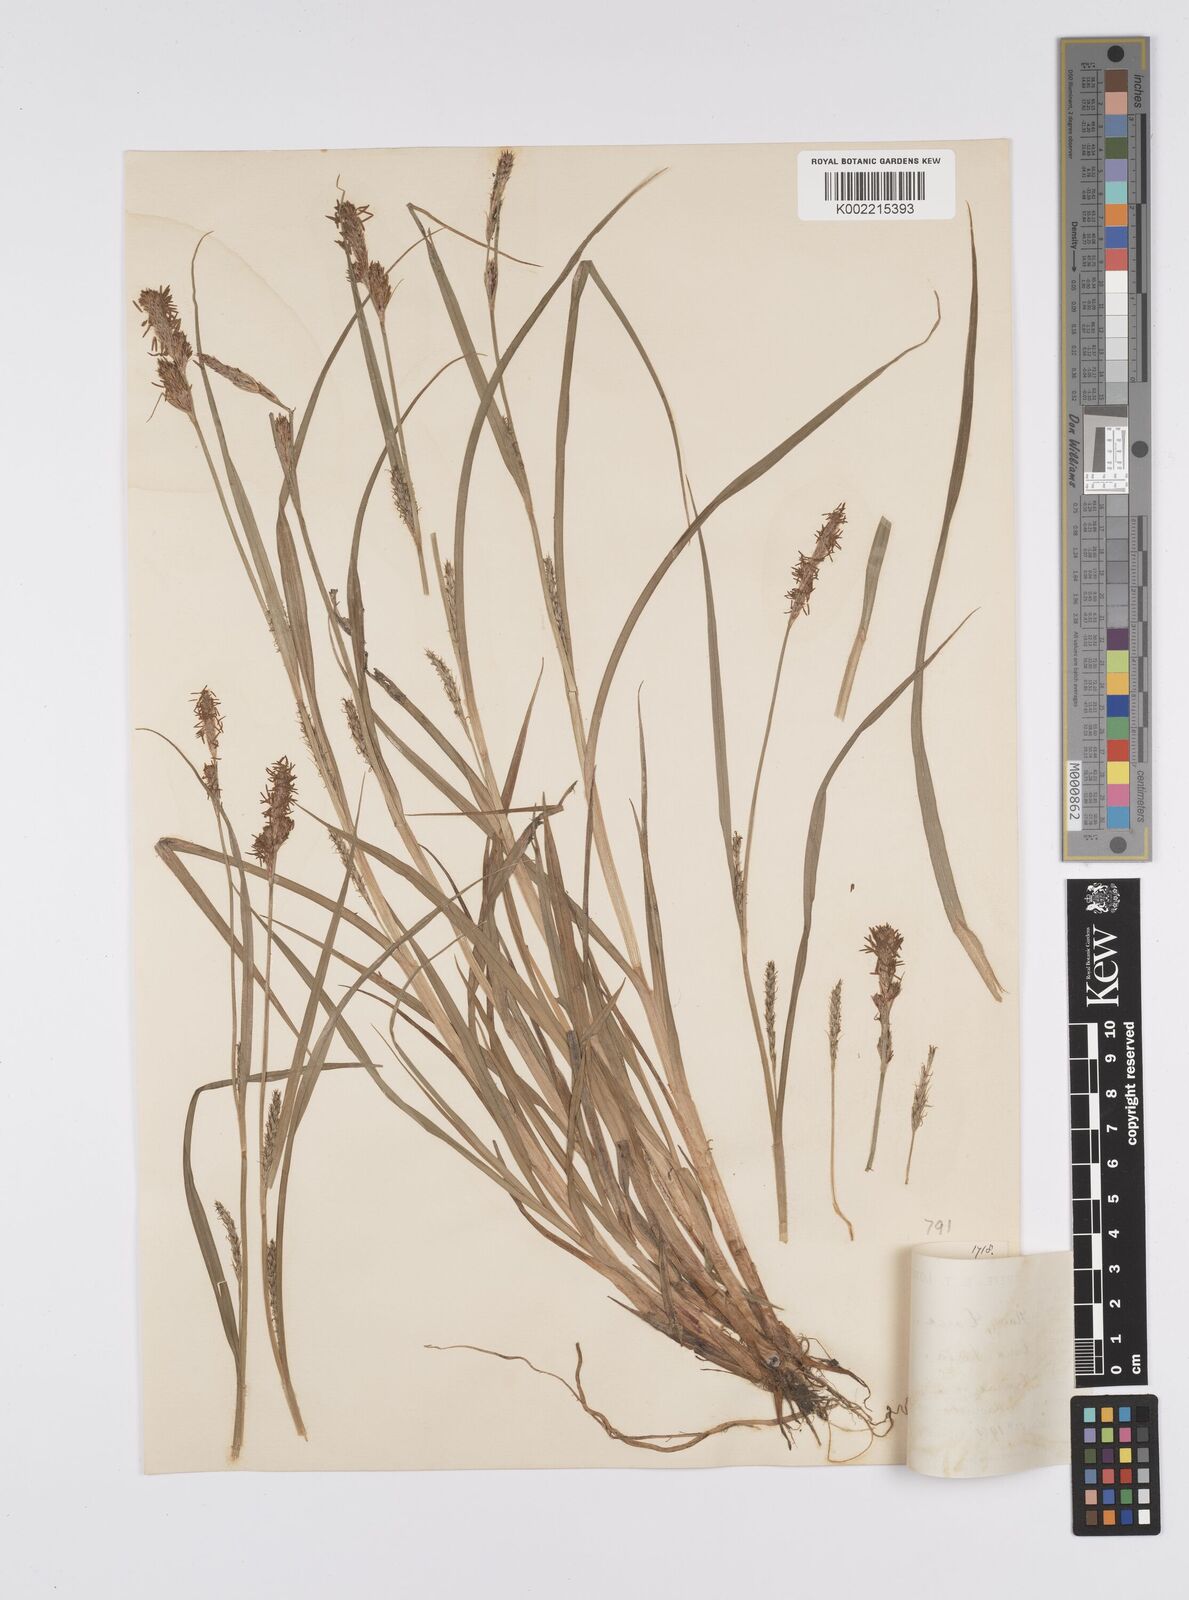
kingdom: Plantae
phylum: Tracheophyta
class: Liliopsida
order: Poales
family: Cyperaceae
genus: Carex
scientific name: Carex hirta
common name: Hairy sedge
